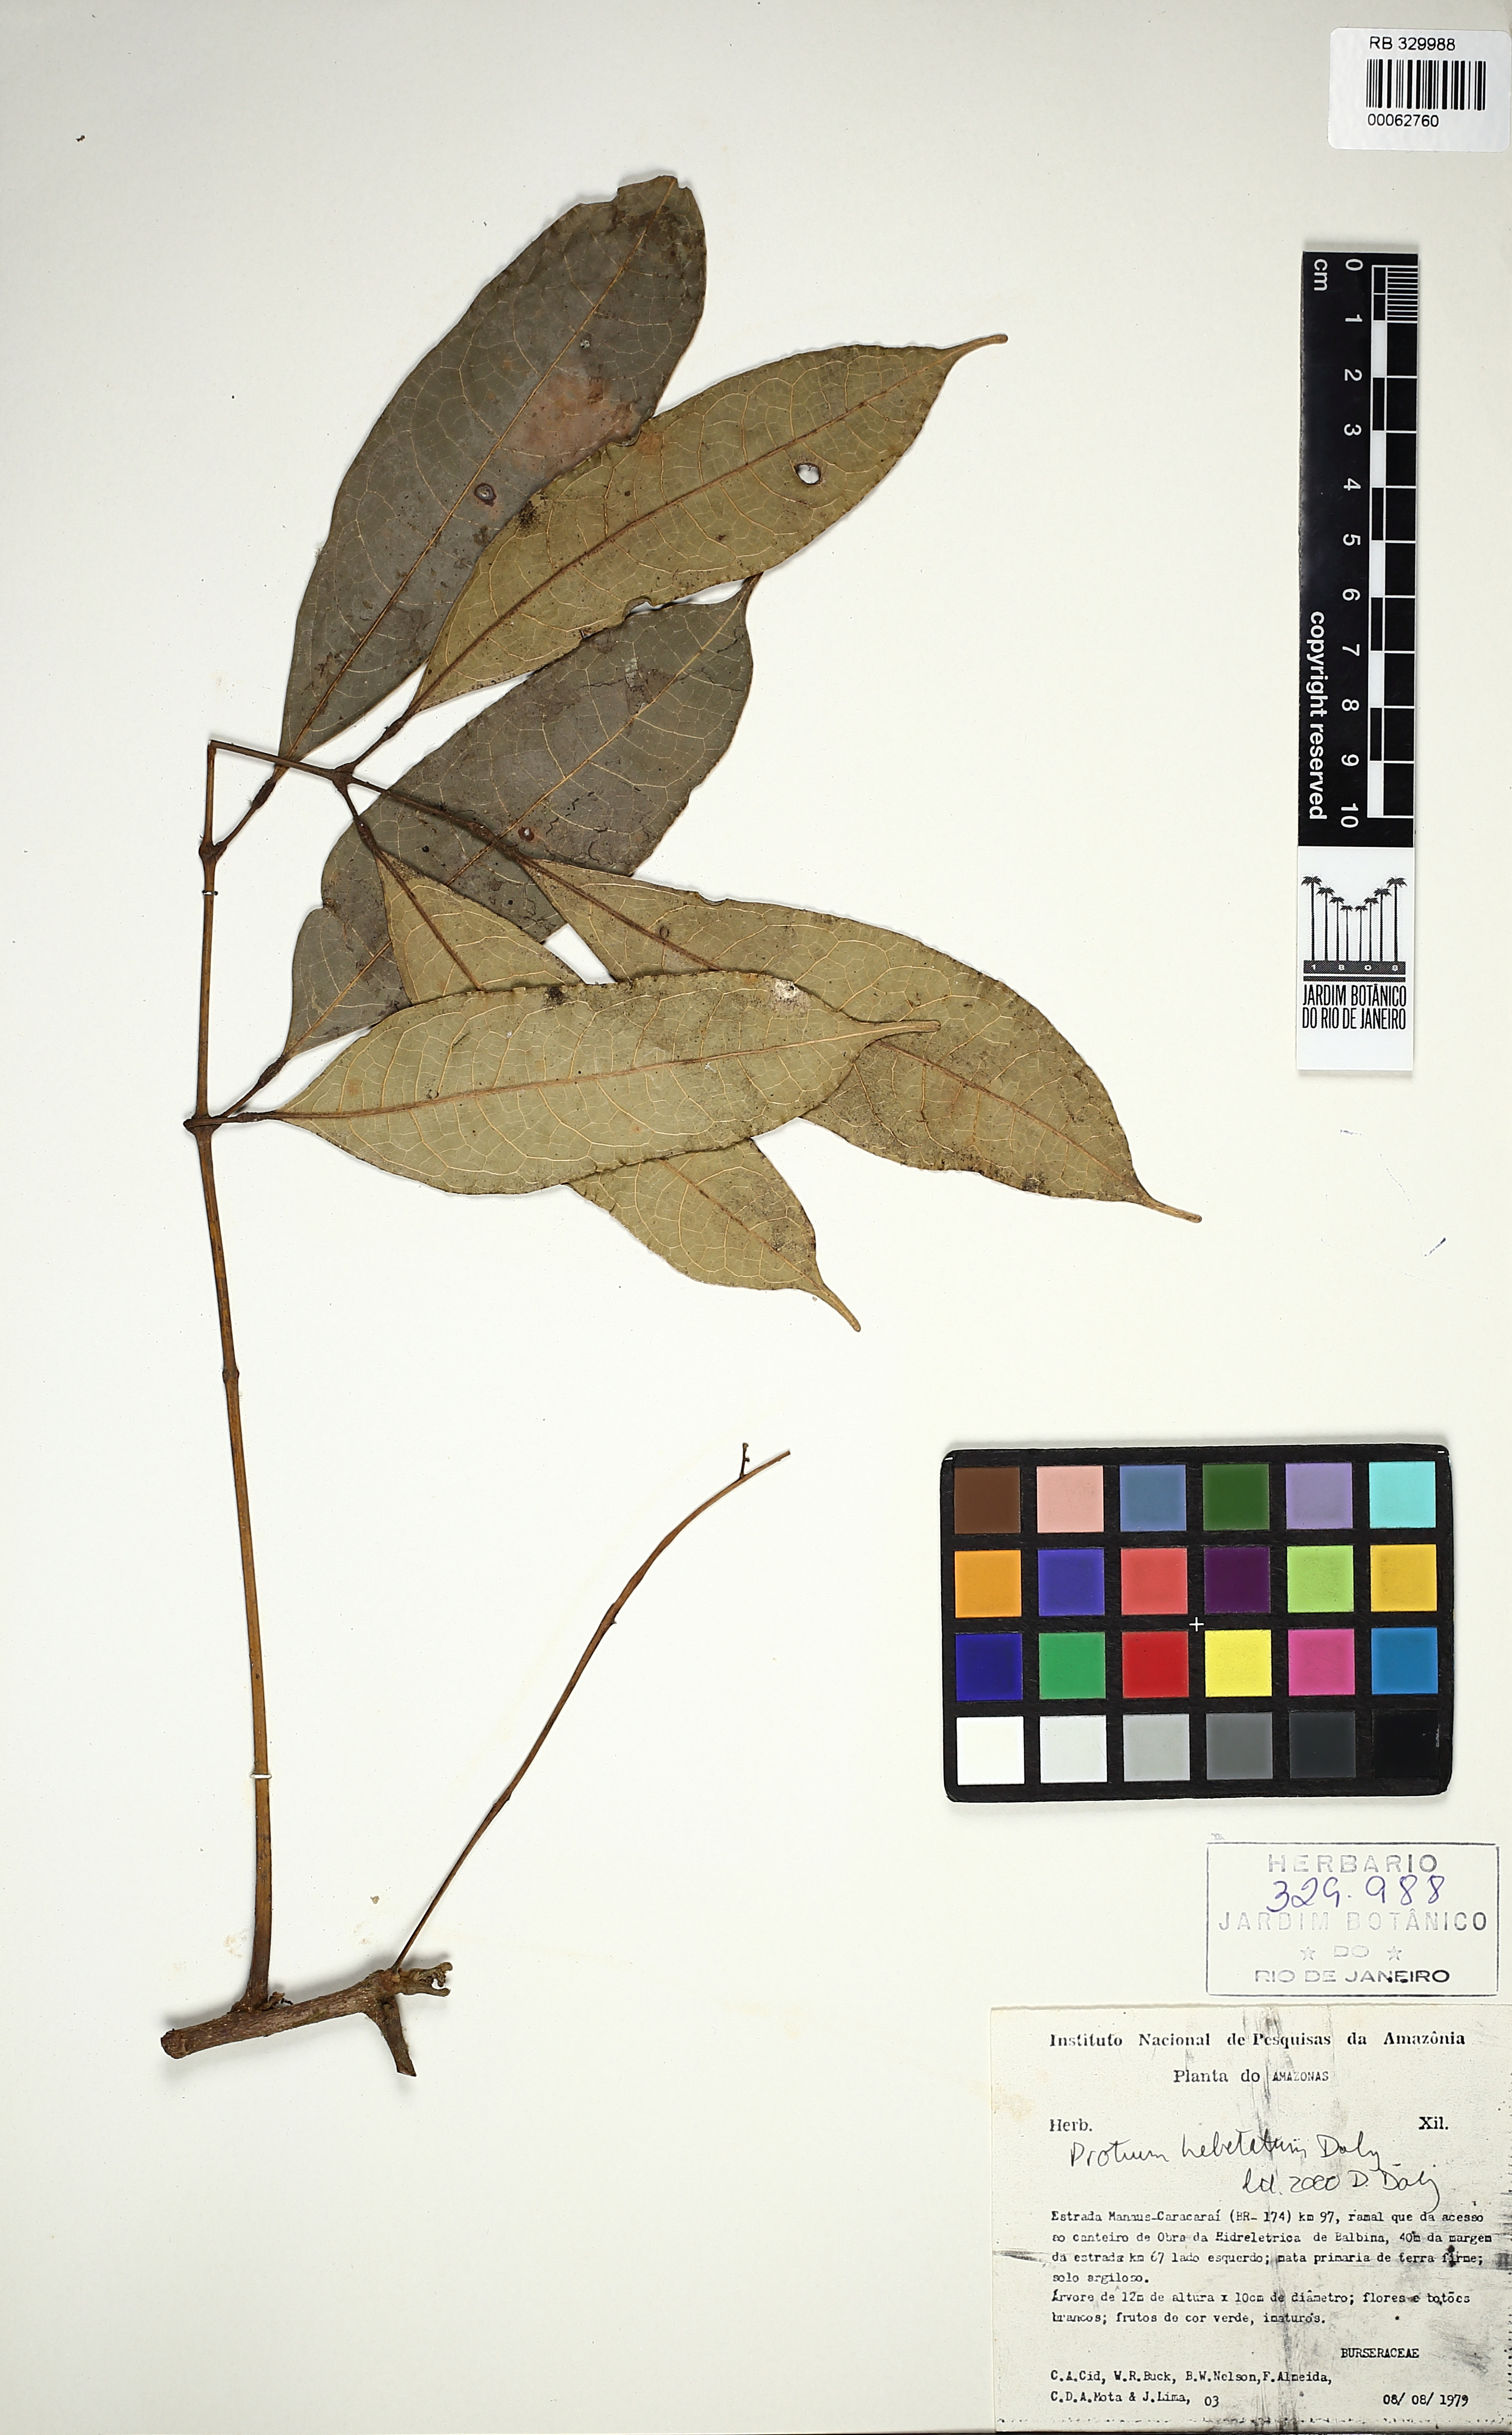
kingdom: Plantae
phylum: Tracheophyta
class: Magnoliopsida
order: Sapindales
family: Burseraceae
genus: Protium
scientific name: Protium hebetatum
